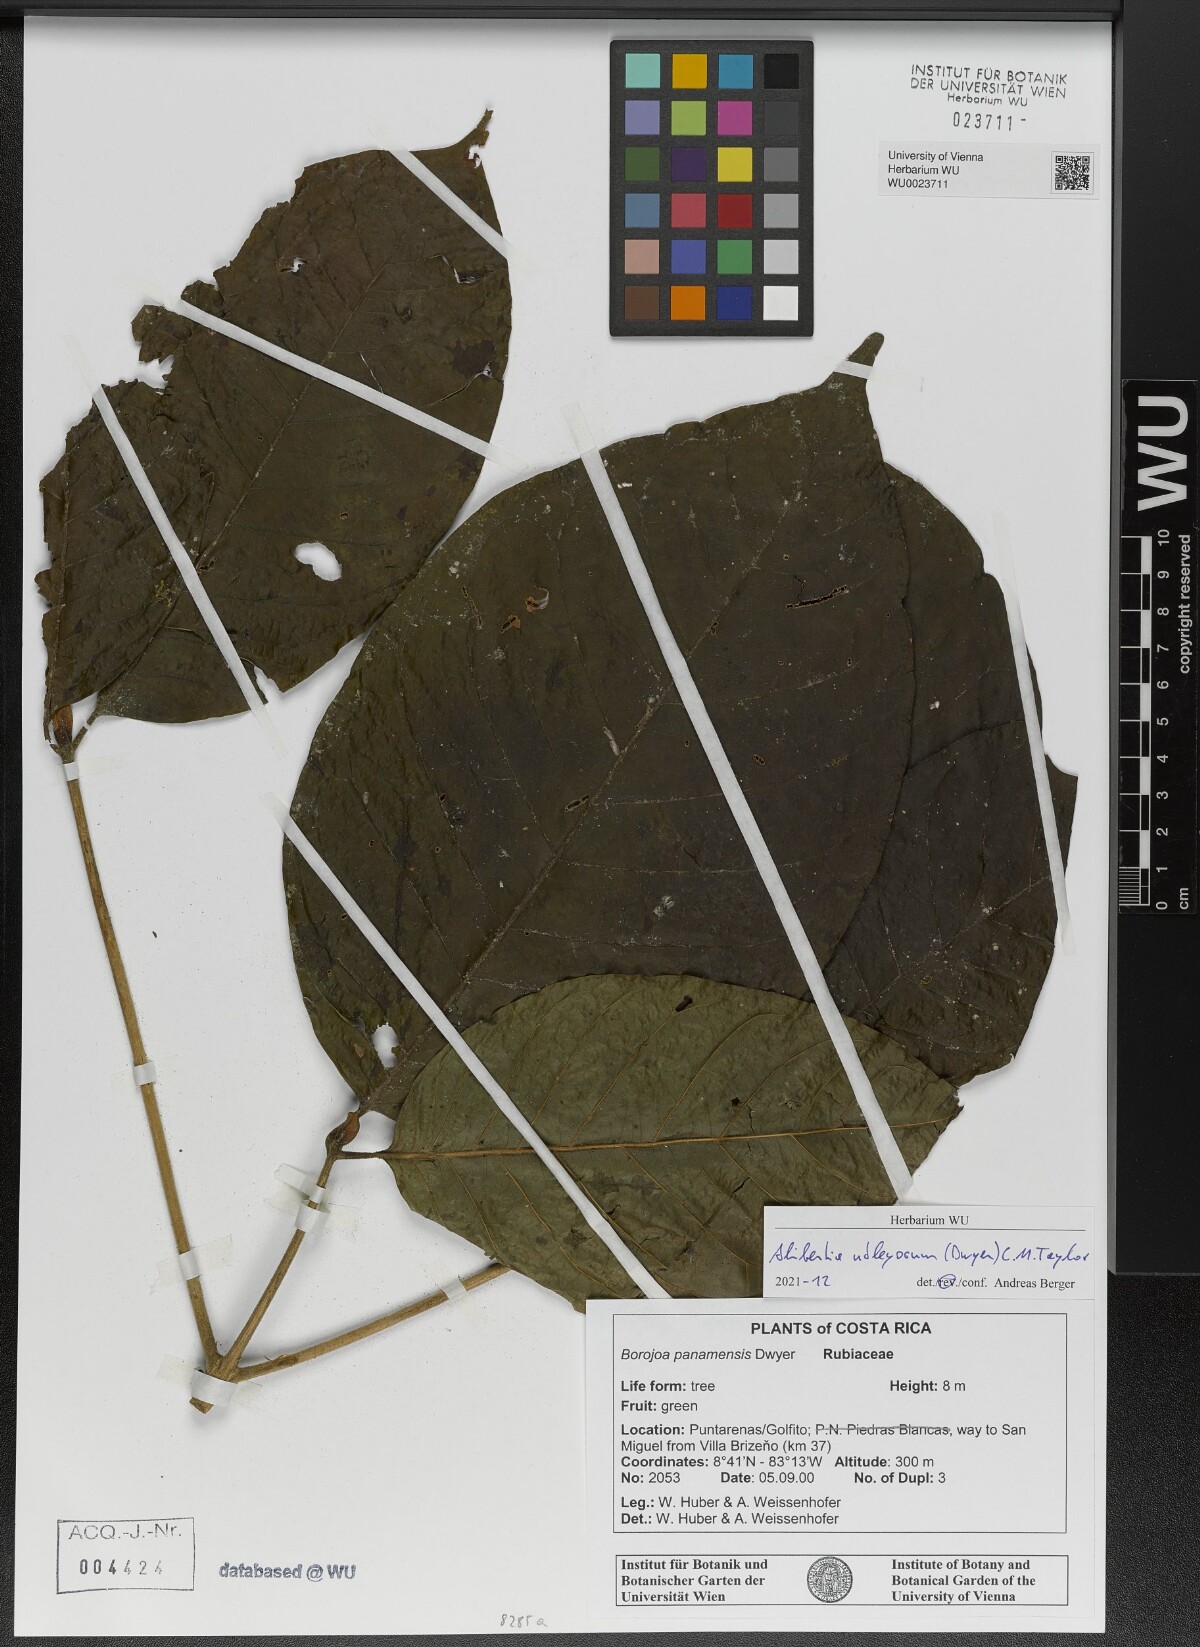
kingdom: Plantae
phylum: Tracheophyta
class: Magnoliopsida
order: Gentianales
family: Rubiaceae
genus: Alibertia
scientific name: Alibertia utleyorum
